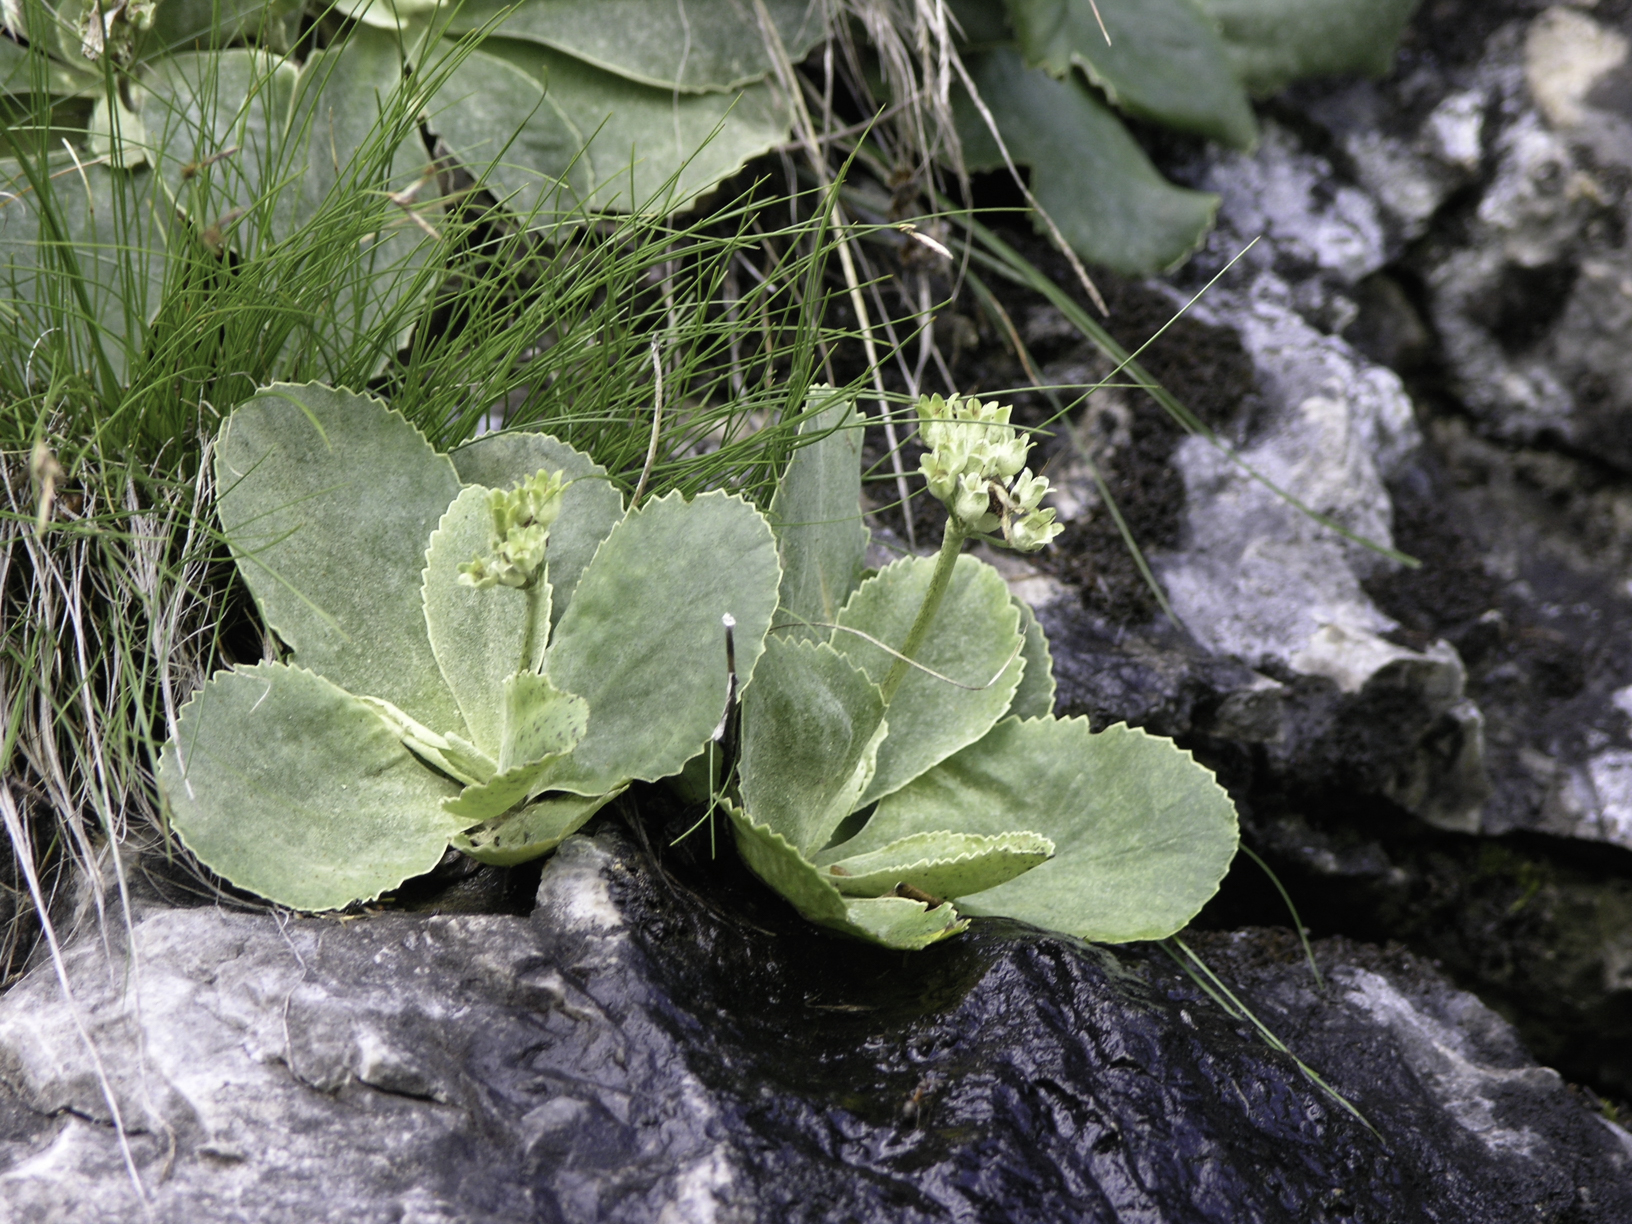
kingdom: Plantae
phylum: Tracheophyta
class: Magnoliopsida
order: Ericales
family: Primulaceae
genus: Primula
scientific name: Primula auricula
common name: Auricula
